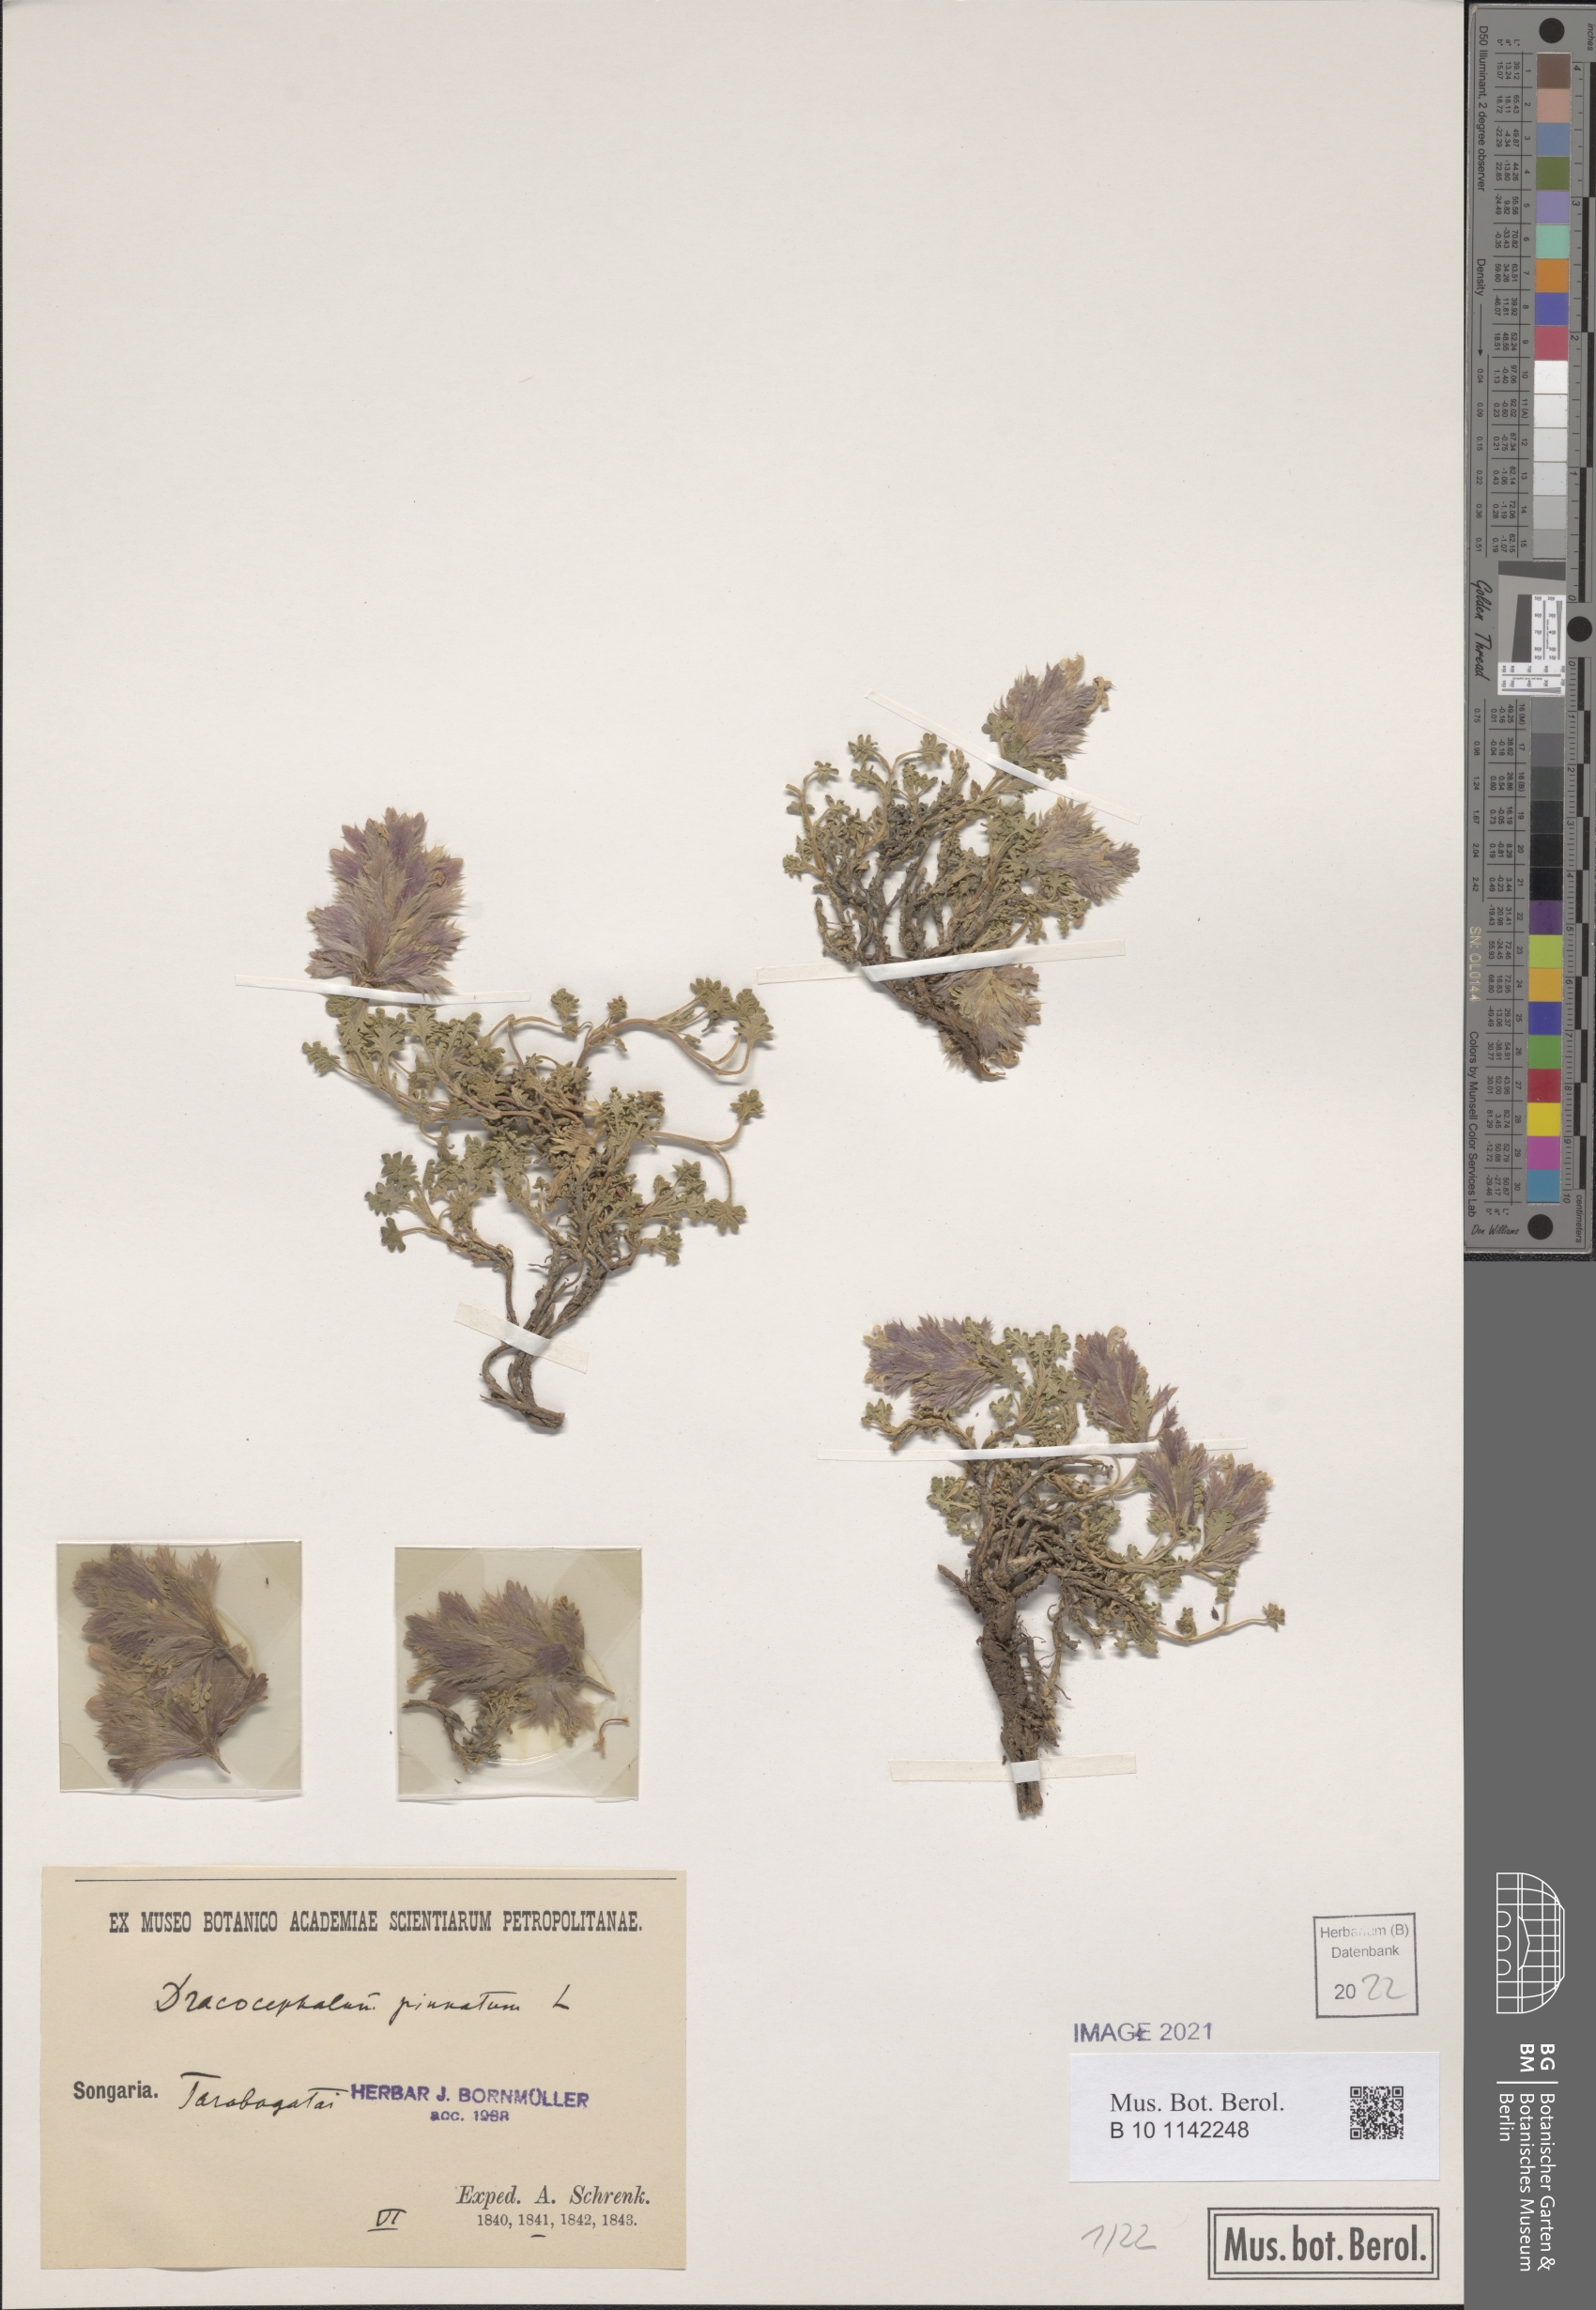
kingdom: Plantae
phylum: Tracheophyta
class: Magnoliopsida
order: Lamiales
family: Lamiaceae
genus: Dracocephalum
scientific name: Dracocephalum pinnatum
